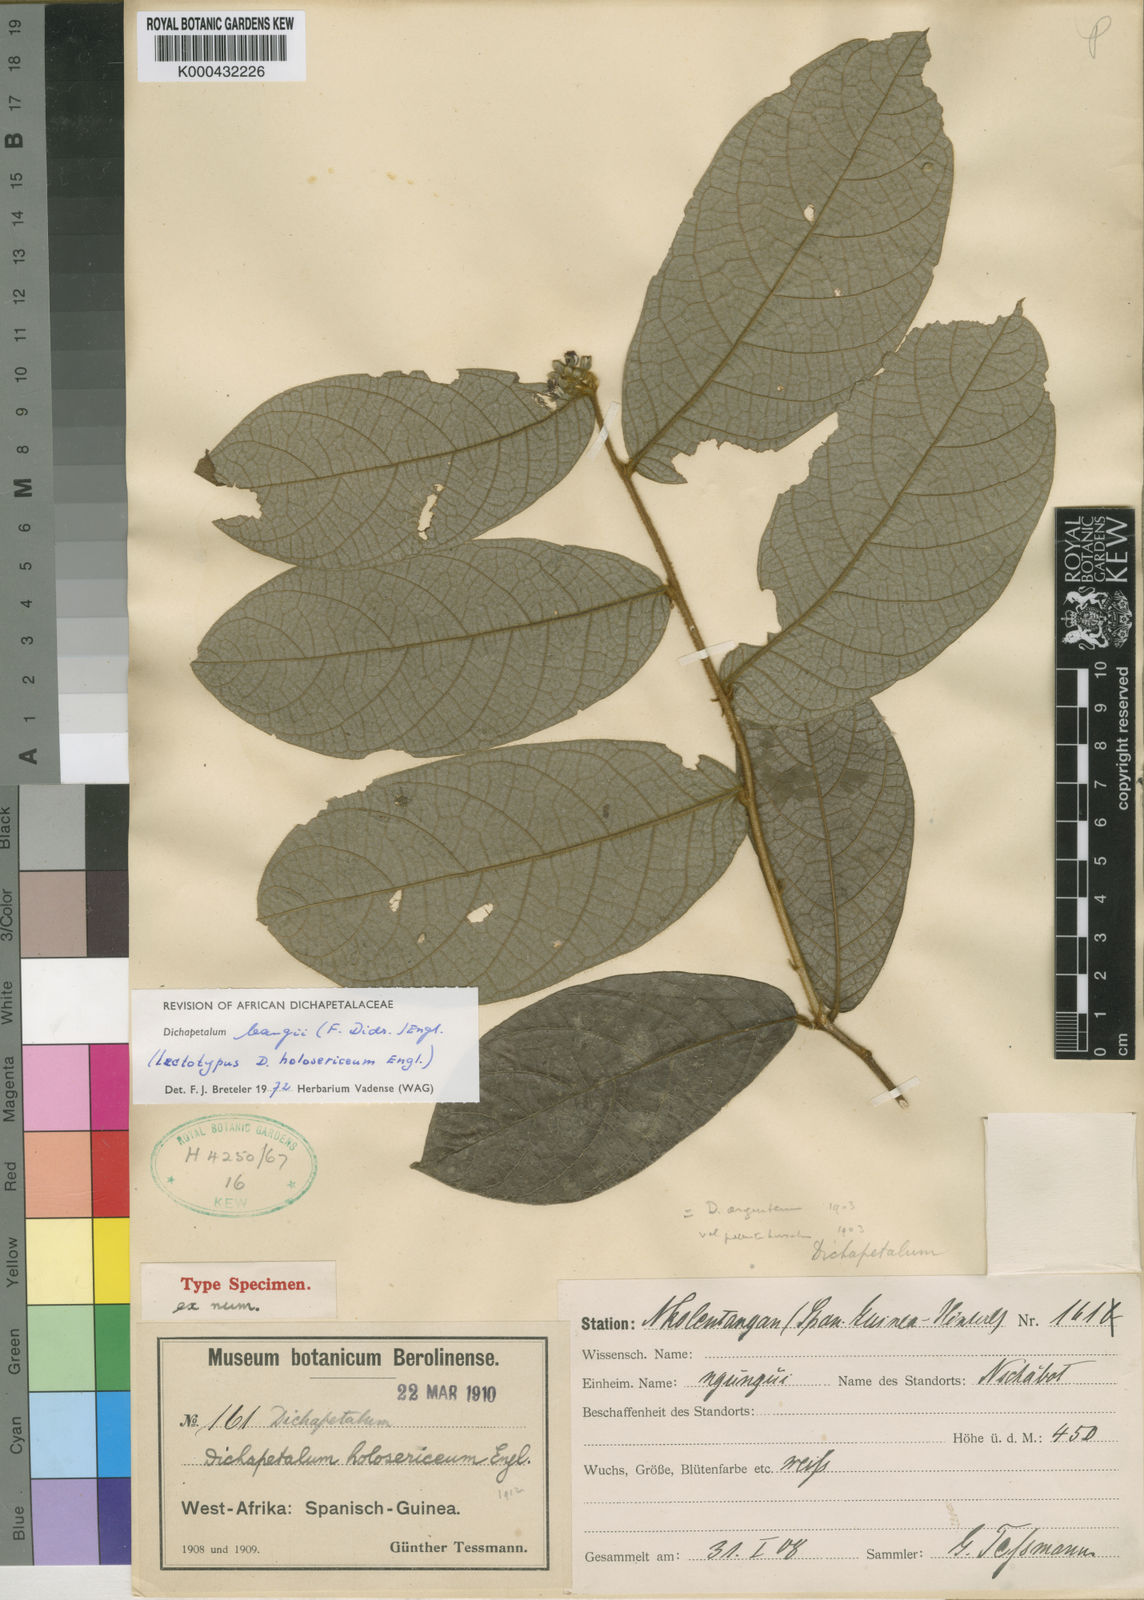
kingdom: Plantae
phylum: Tracheophyta
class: Magnoliopsida
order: Malpighiales
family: Dichapetalaceae
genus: Dichapetalum
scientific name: Dichapetalum bangii
